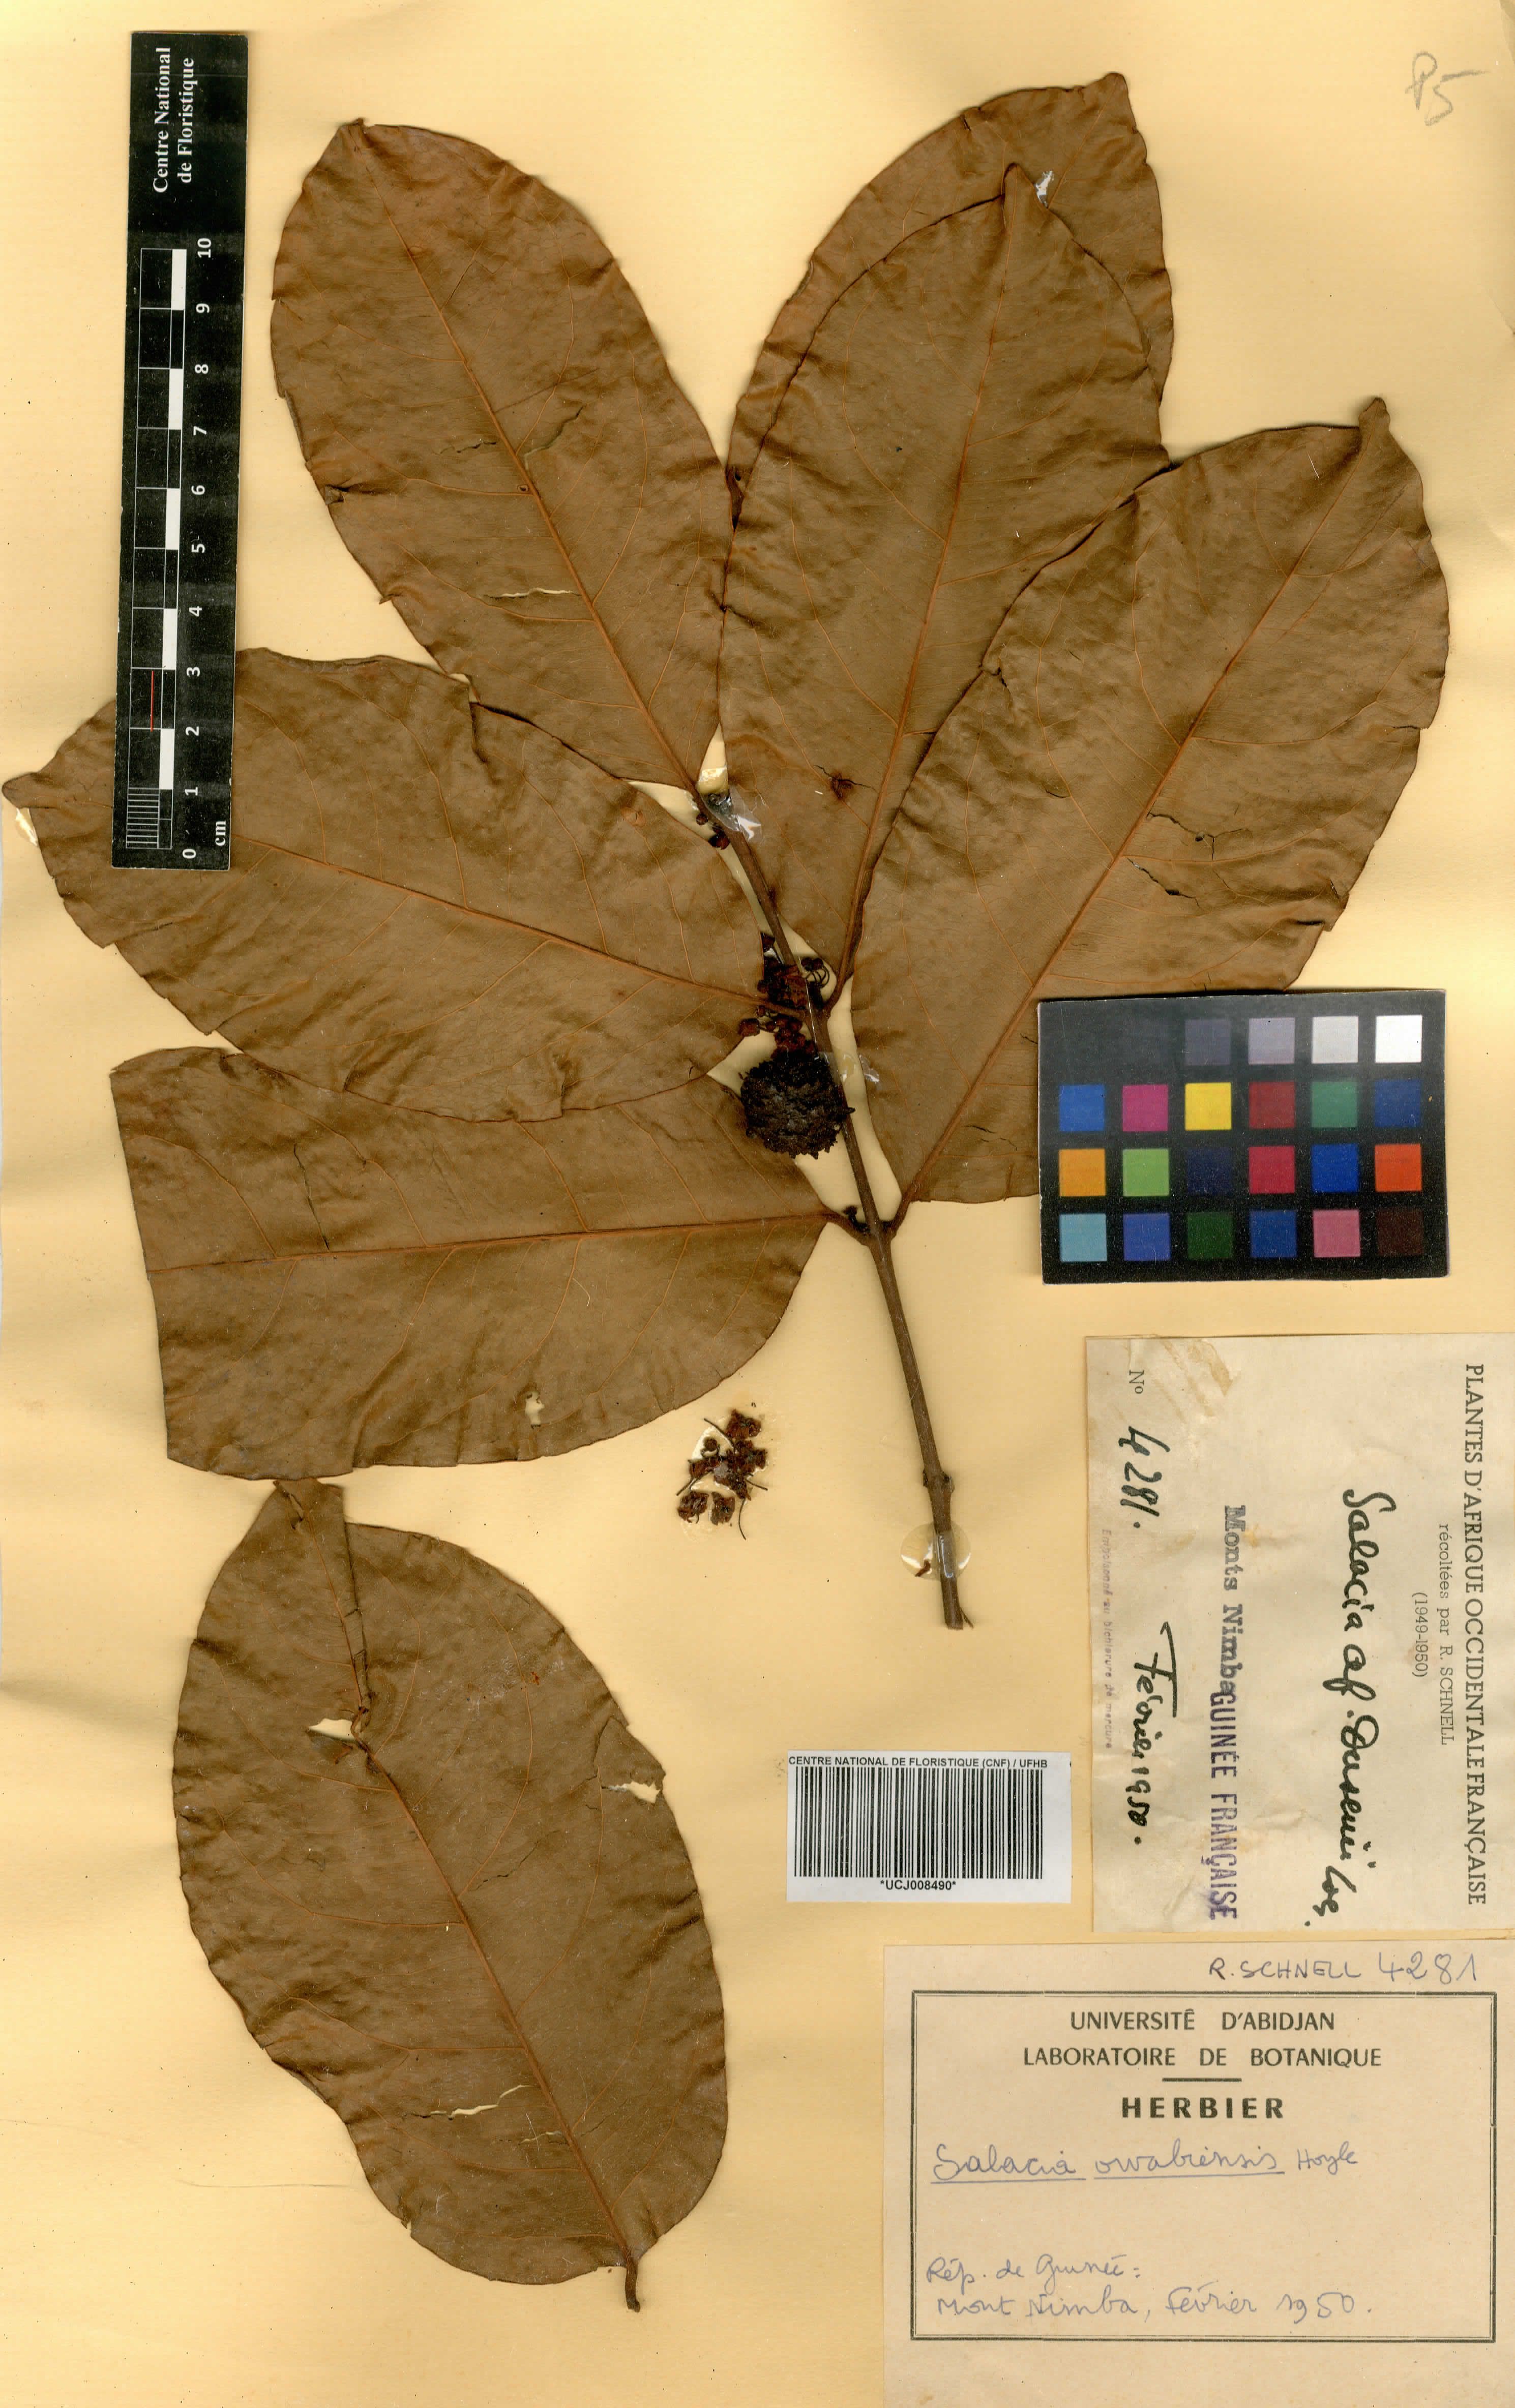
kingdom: Plantae
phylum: Tracheophyta
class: Magnoliopsida
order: Celastrales
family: Celastraceae
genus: Salacia
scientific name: Salacia owabiensis
